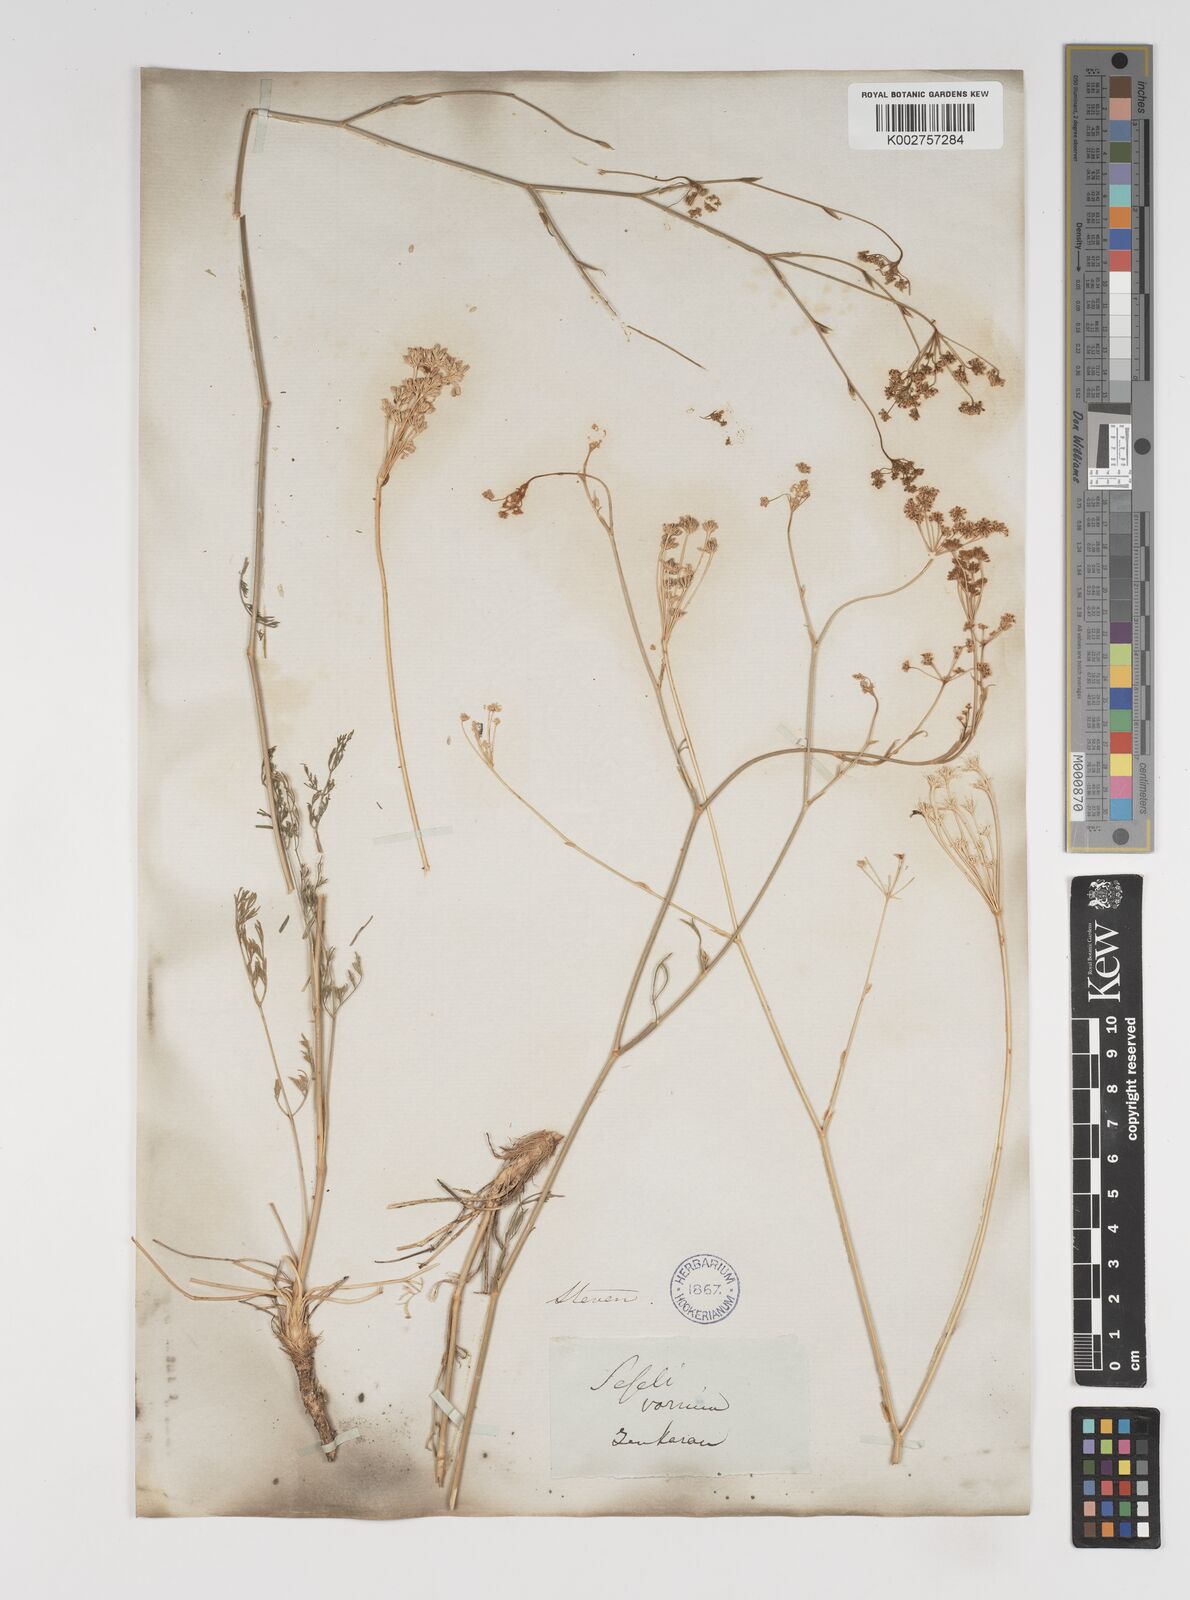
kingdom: Plantae
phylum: Tracheophyta
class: Magnoliopsida
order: Apiales
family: Apiaceae
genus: Seseli
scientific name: Seseli pallasii
